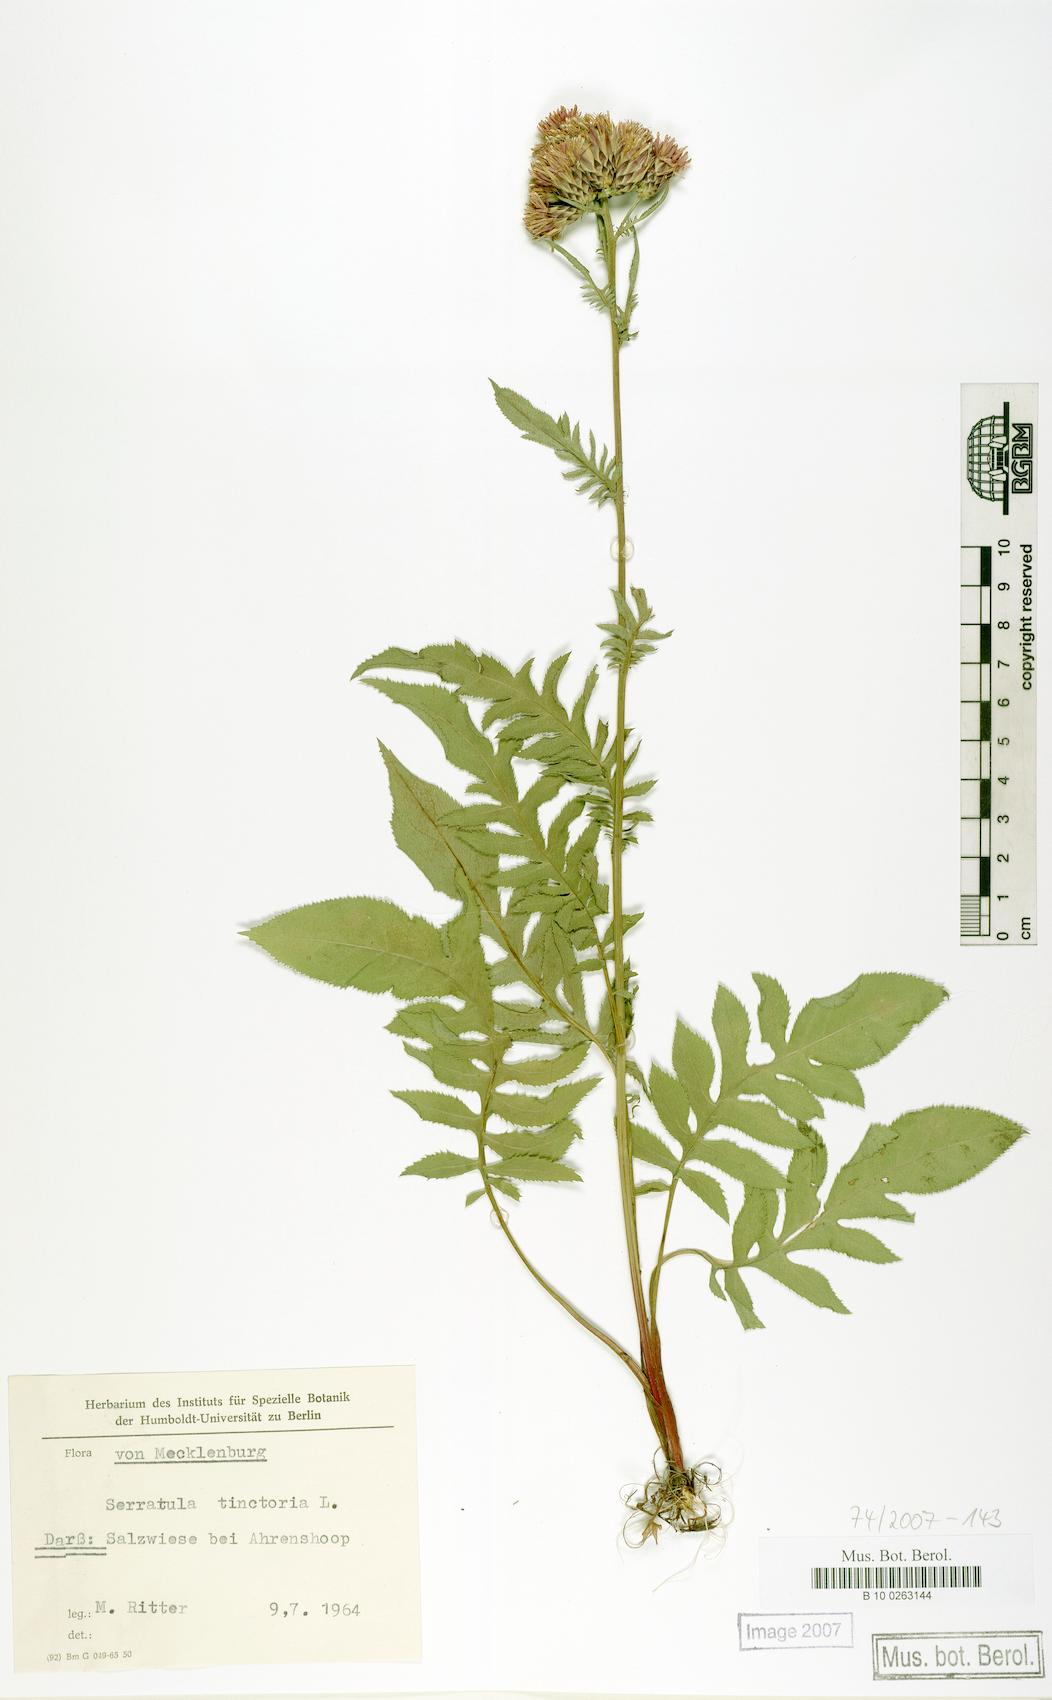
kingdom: Plantae
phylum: Tracheophyta
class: Magnoliopsida
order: Asterales
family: Asteraceae
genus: Serratula
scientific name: Serratula tinctoria
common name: Saw-wort
